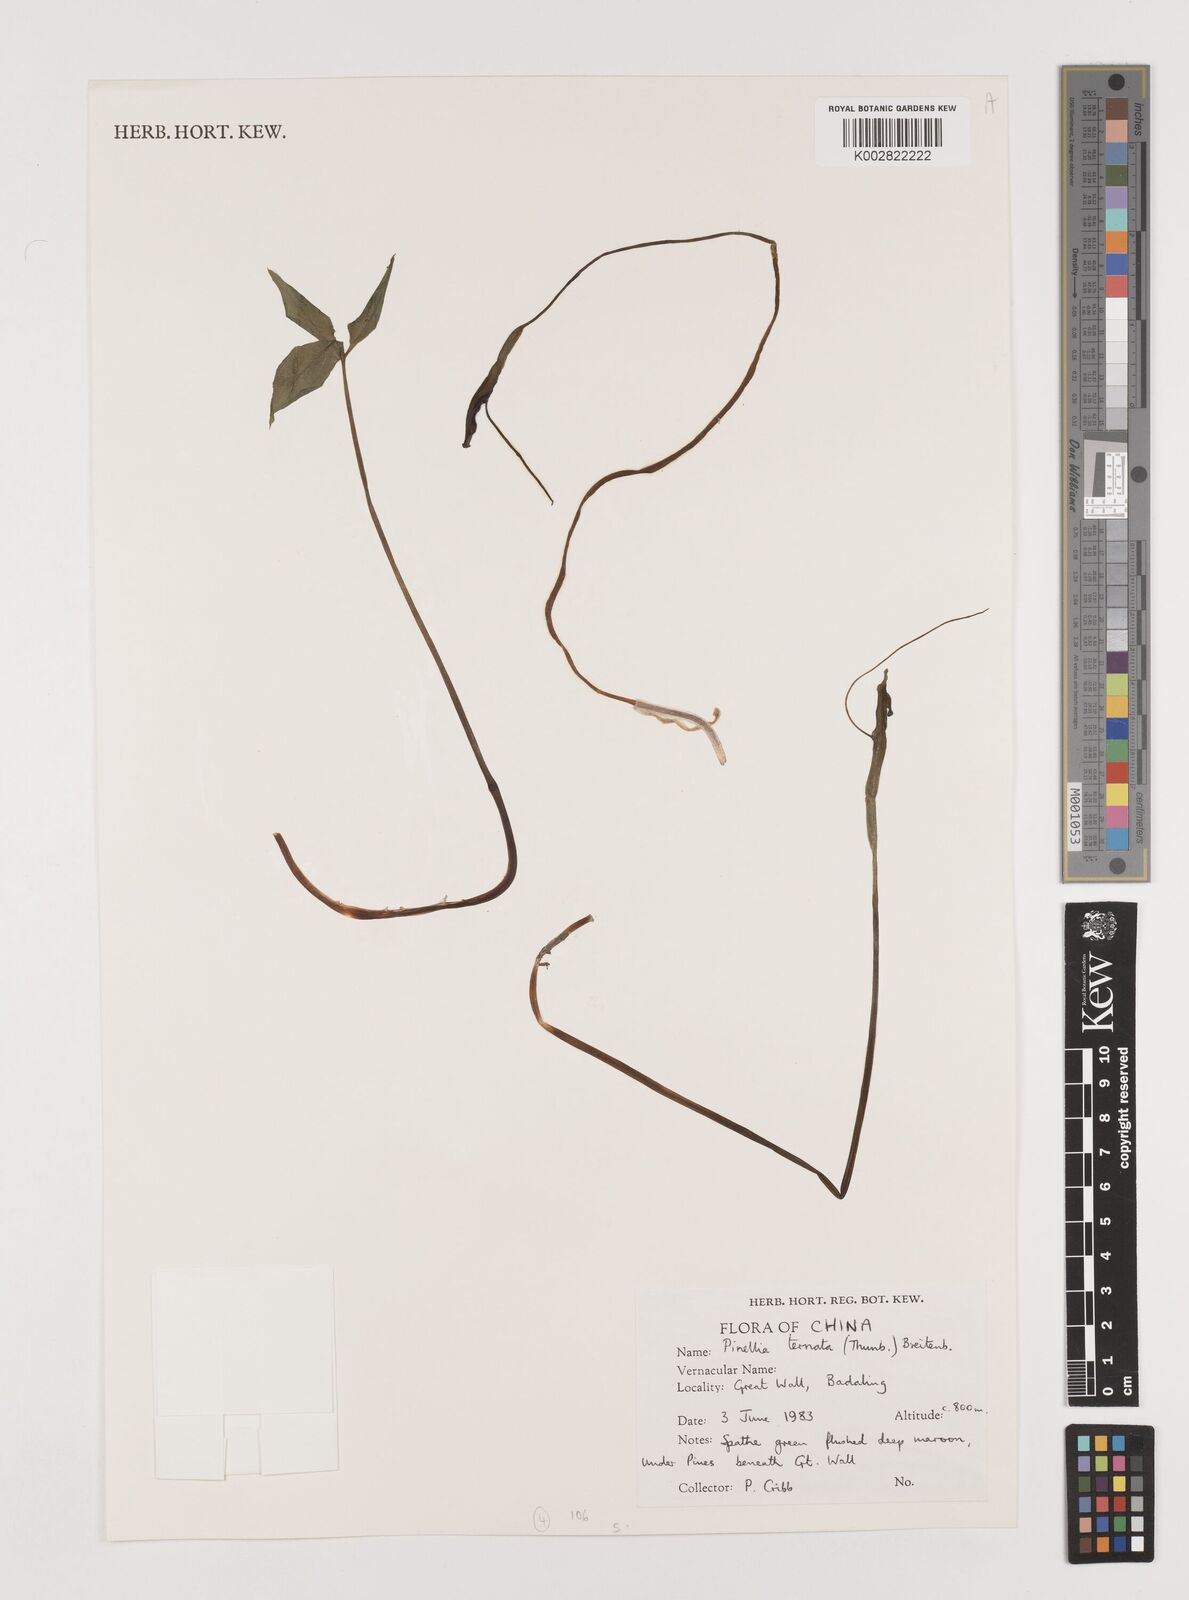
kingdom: Plantae
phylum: Tracheophyta
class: Liliopsida
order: Alismatales
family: Araceae
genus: Pinellia
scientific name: Pinellia ternata
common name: Pinellia
